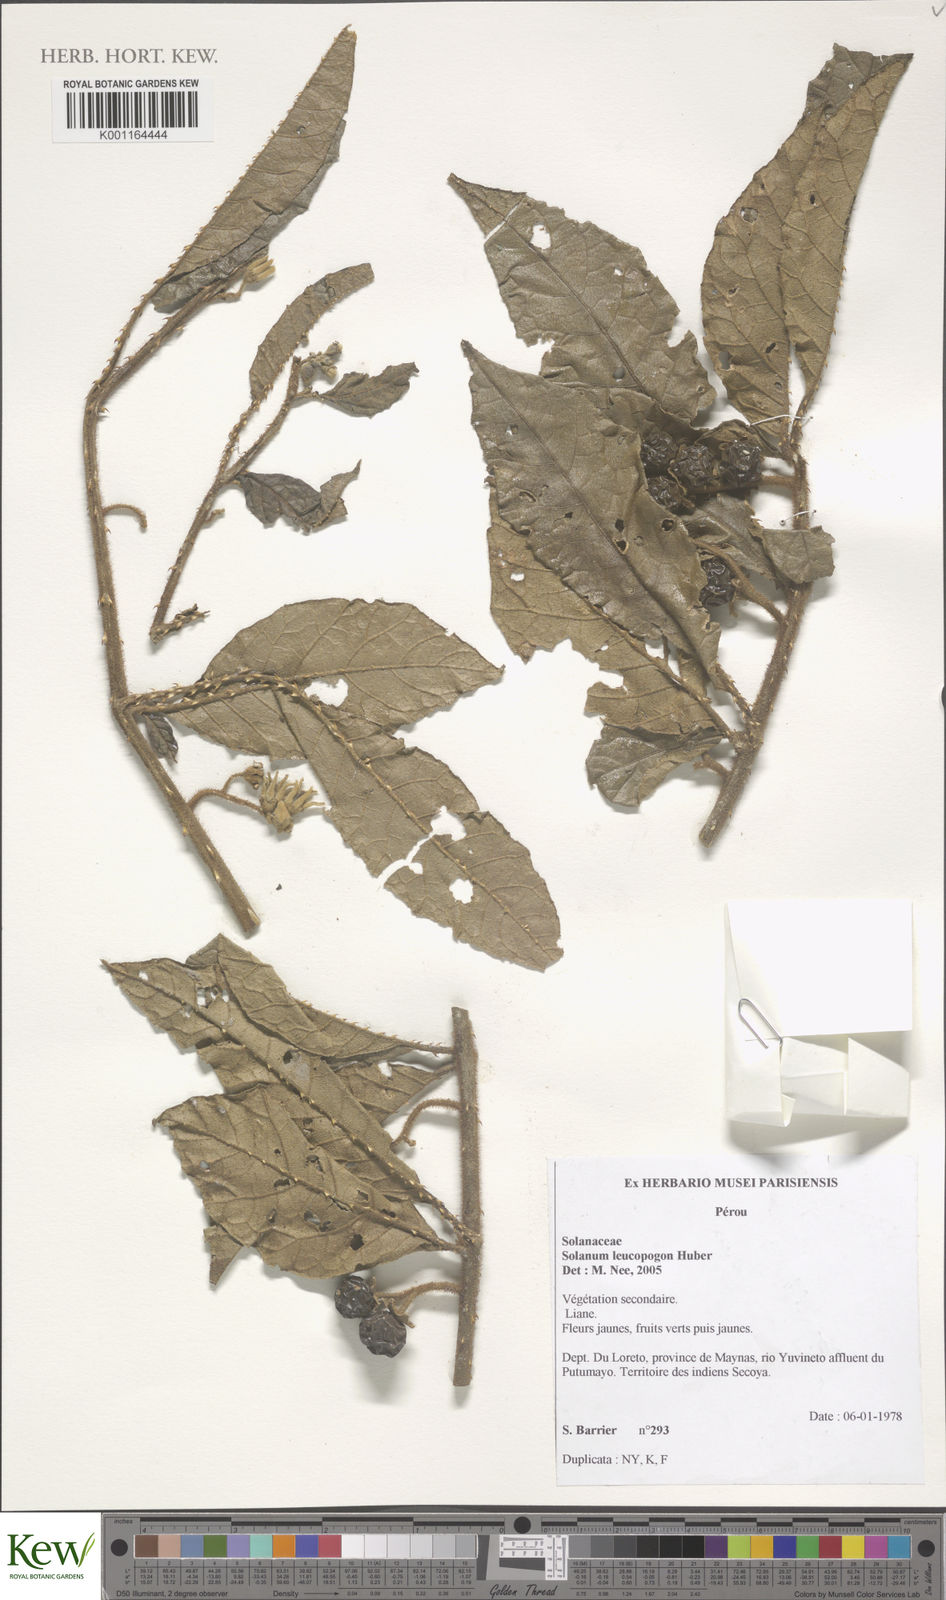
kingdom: Plantae
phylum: Tracheophyta
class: Magnoliopsida
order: Solanales
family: Solanaceae
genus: Solanum
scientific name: Solanum leucopogon
